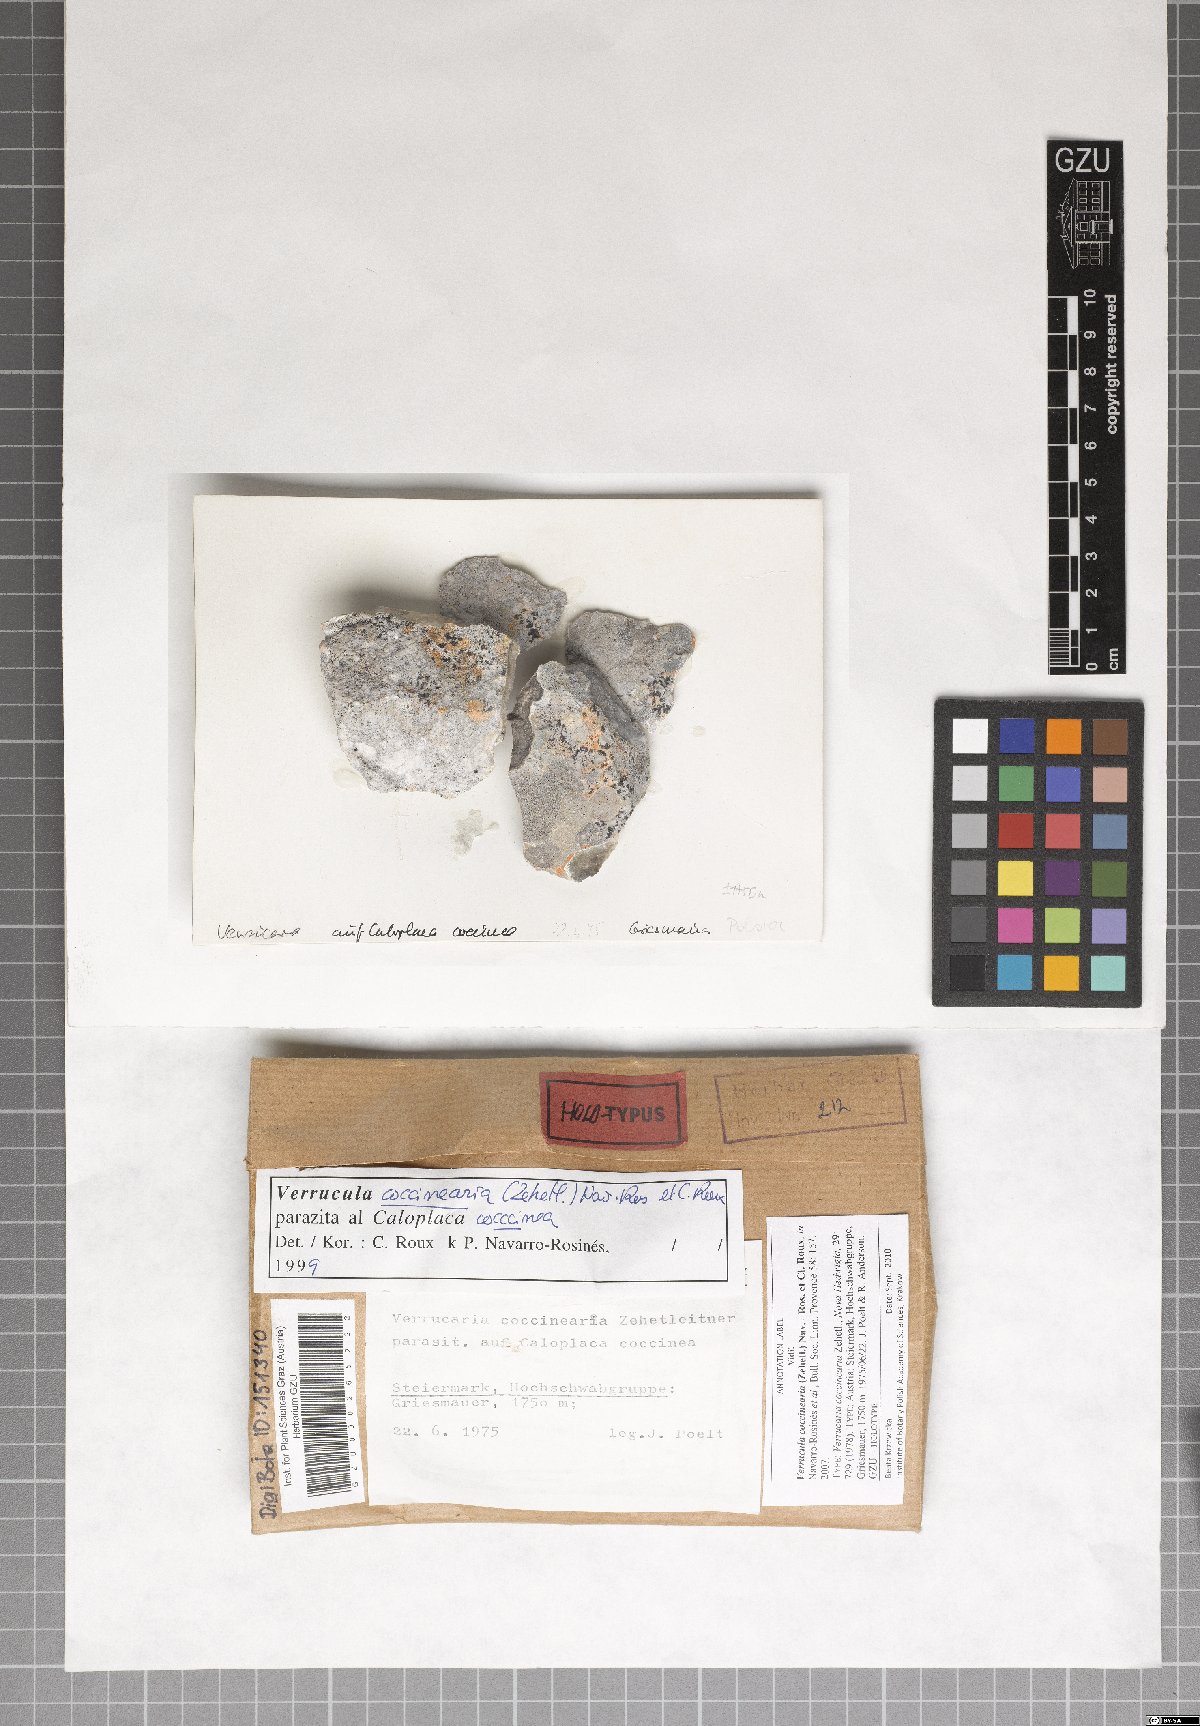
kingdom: Fungi
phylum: Ascomycota
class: Eurotiomycetes
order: Verrucariales
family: Verrucariaceae
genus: Verrucula
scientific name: Verrucula coccinearia
